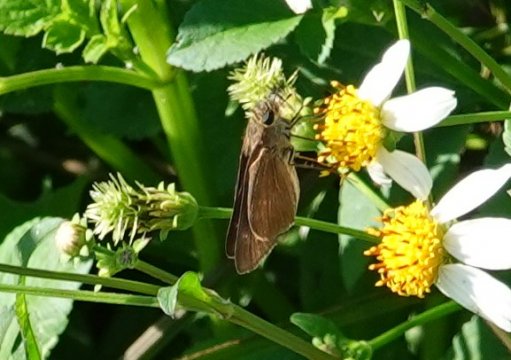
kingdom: Animalia
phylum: Arthropoda
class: Insecta
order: Lepidoptera
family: Hesperiidae
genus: Panoquina
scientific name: Panoquina ocola
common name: Ocola Skipper
